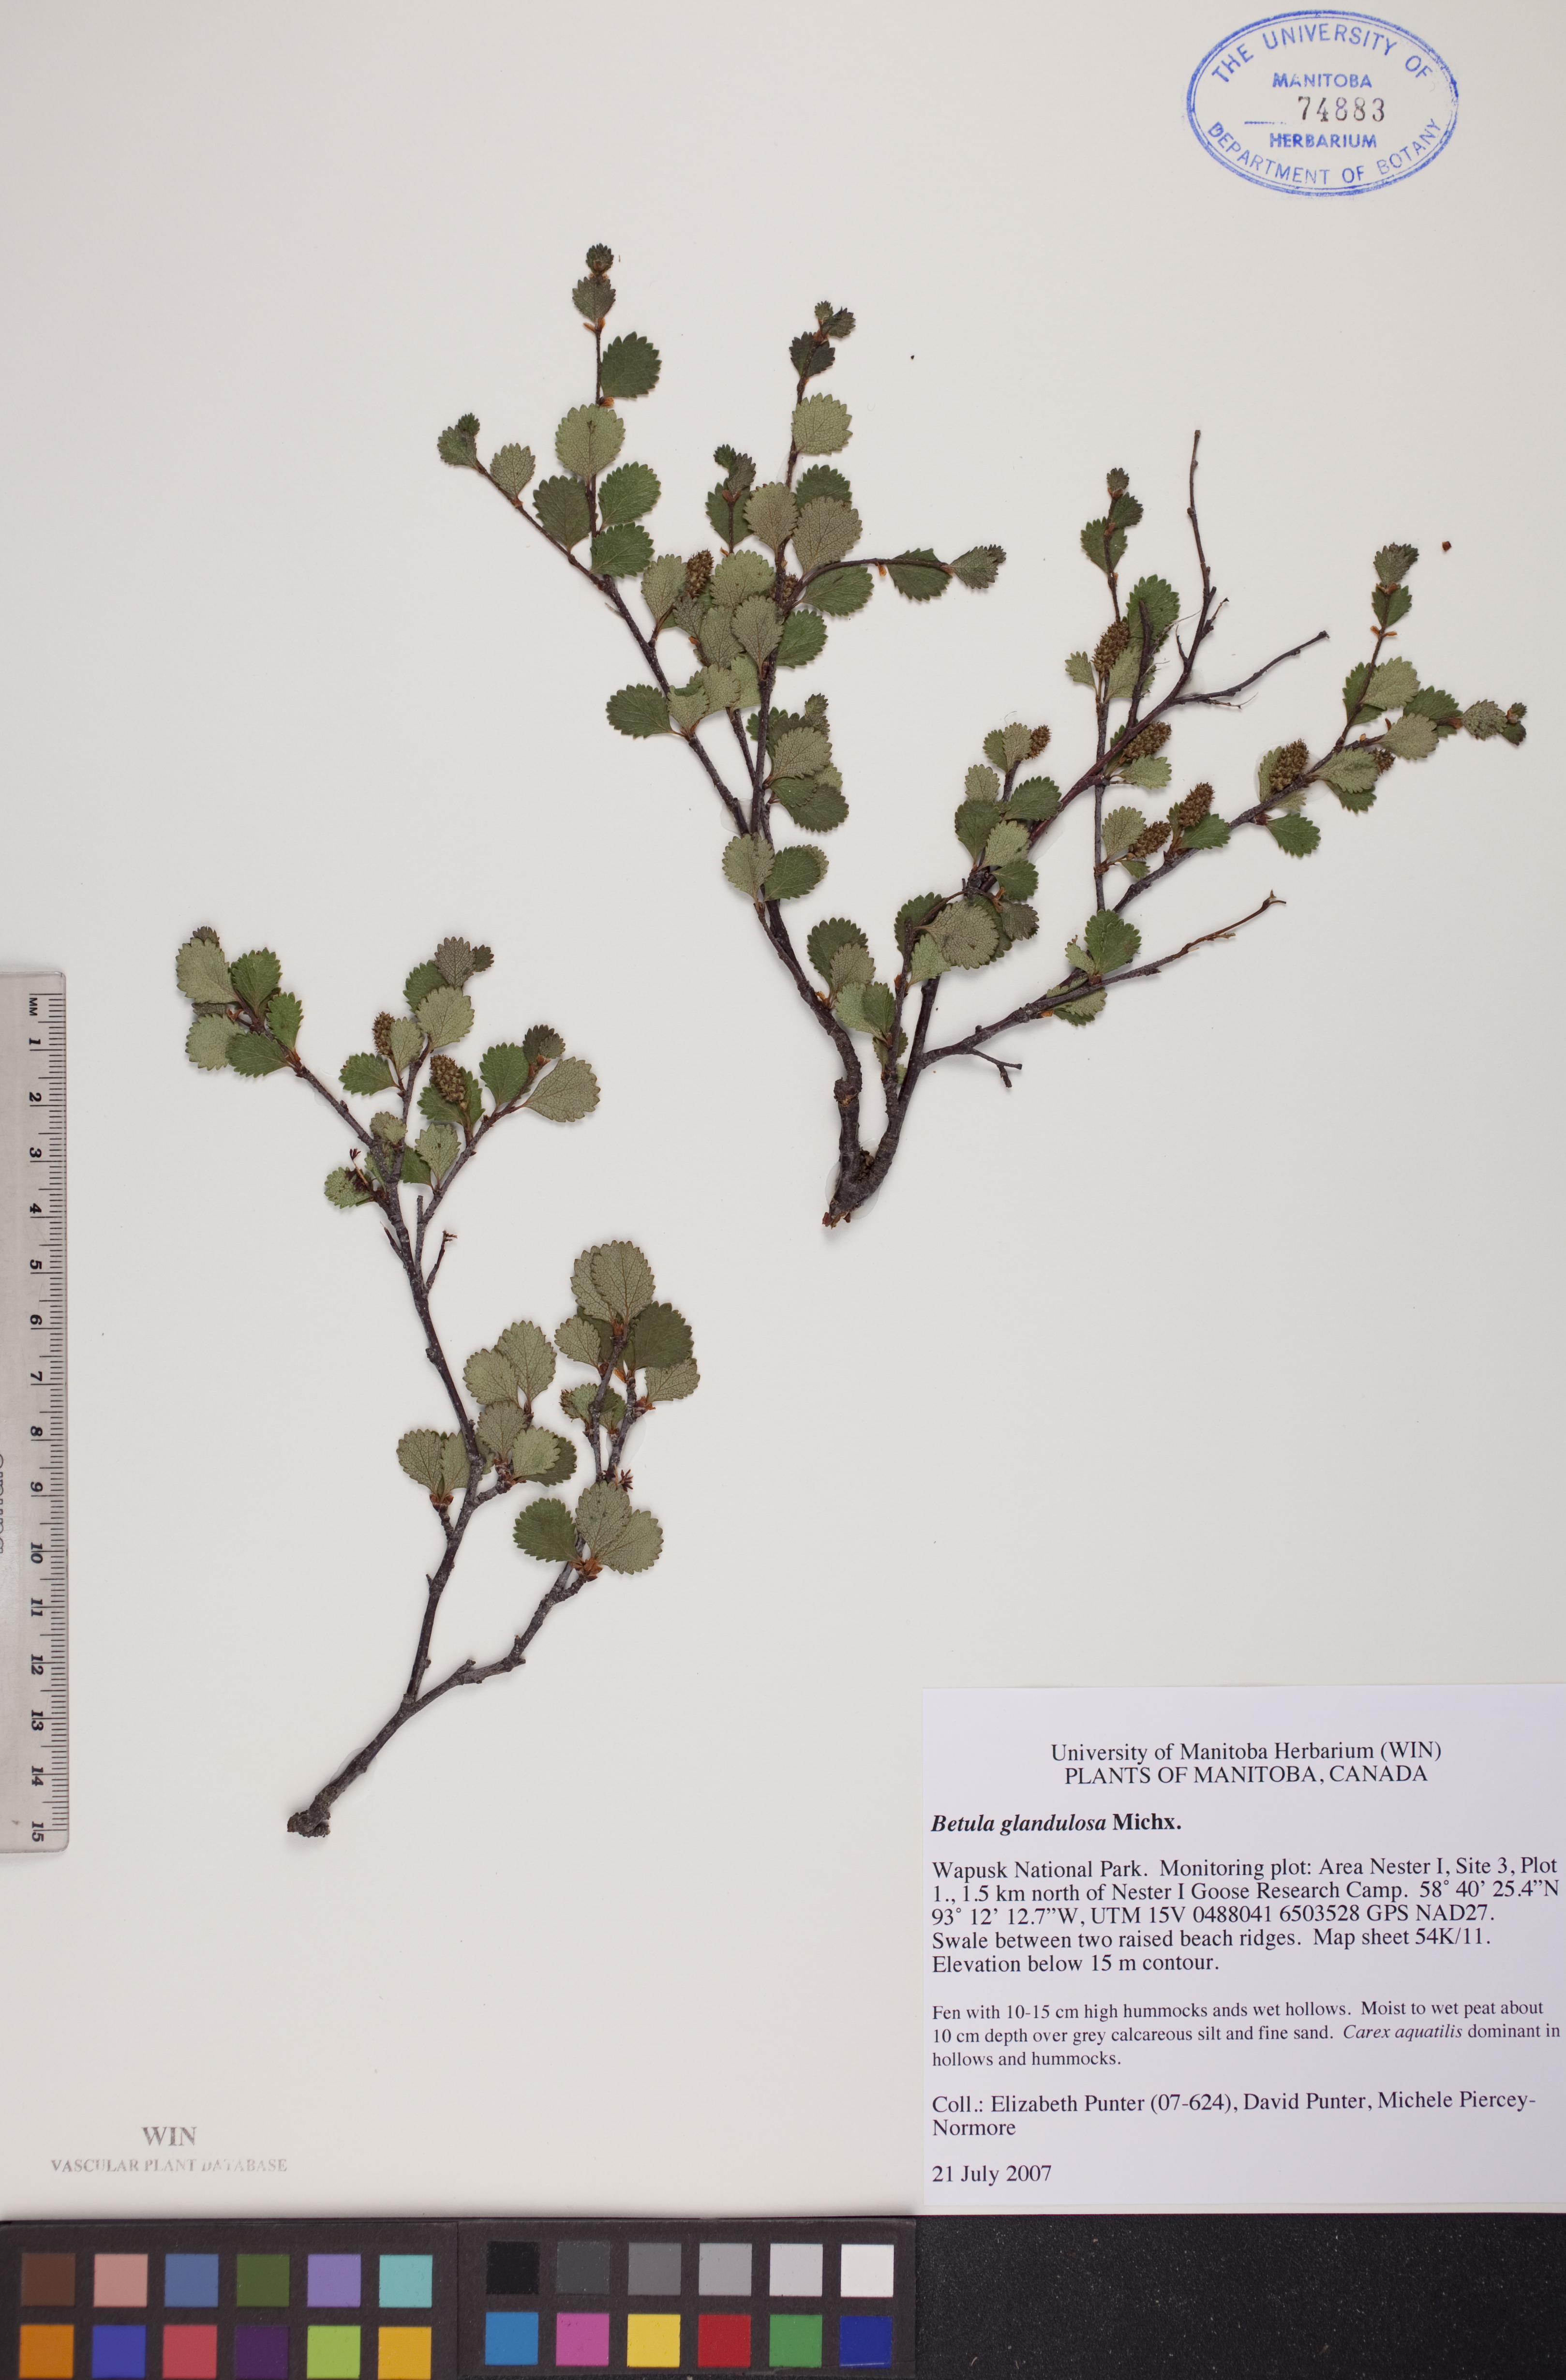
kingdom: Plantae
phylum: Tracheophyta
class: Magnoliopsida
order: Fagales
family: Betulaceae
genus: Betula
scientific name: Betula glandulosa
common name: Dwarf birch
